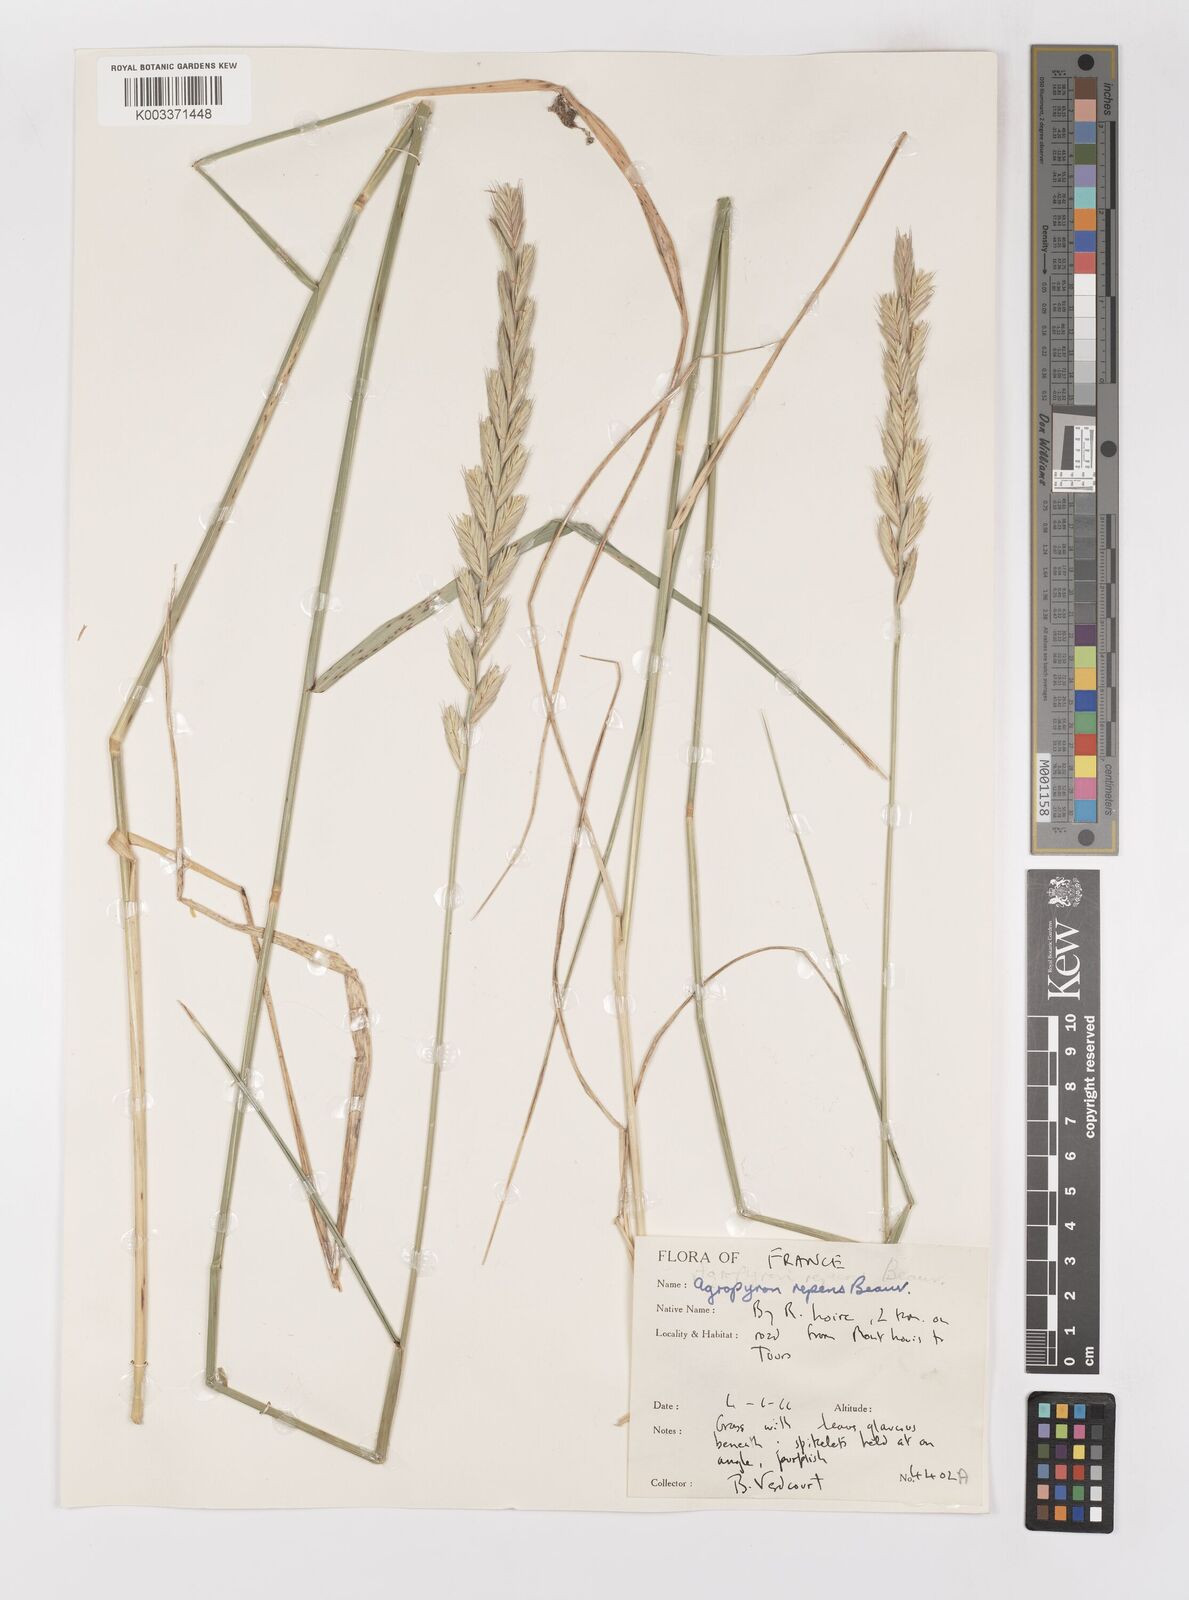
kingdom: Plantae
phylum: Tracheophyta
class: Liliopsida
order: Poales
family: Poaceae
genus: Elymus
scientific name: Elymus repens
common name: Quackgrass
